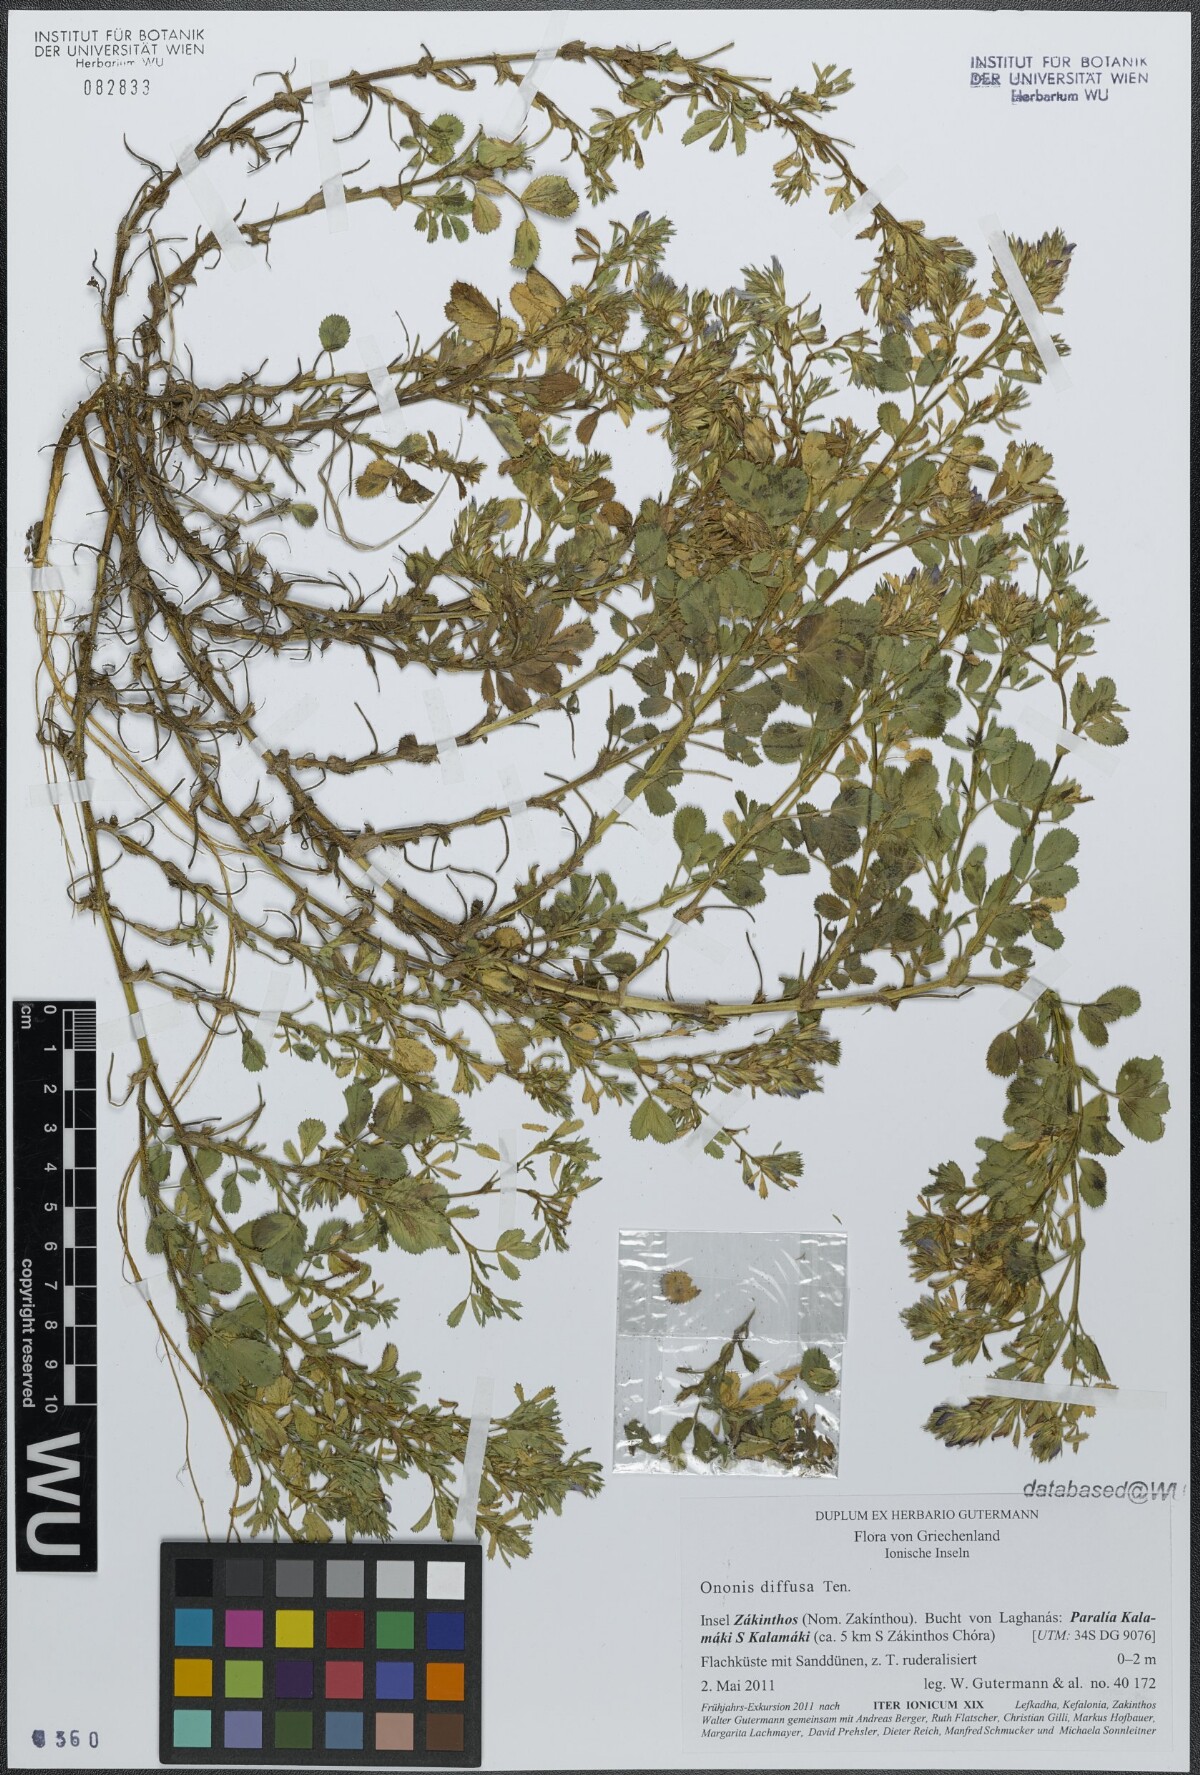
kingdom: Plantae
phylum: Tracheophyta
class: Magnoliopsida
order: Fabales
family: Fabaceae
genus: Ononis
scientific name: Ononis diffusa
